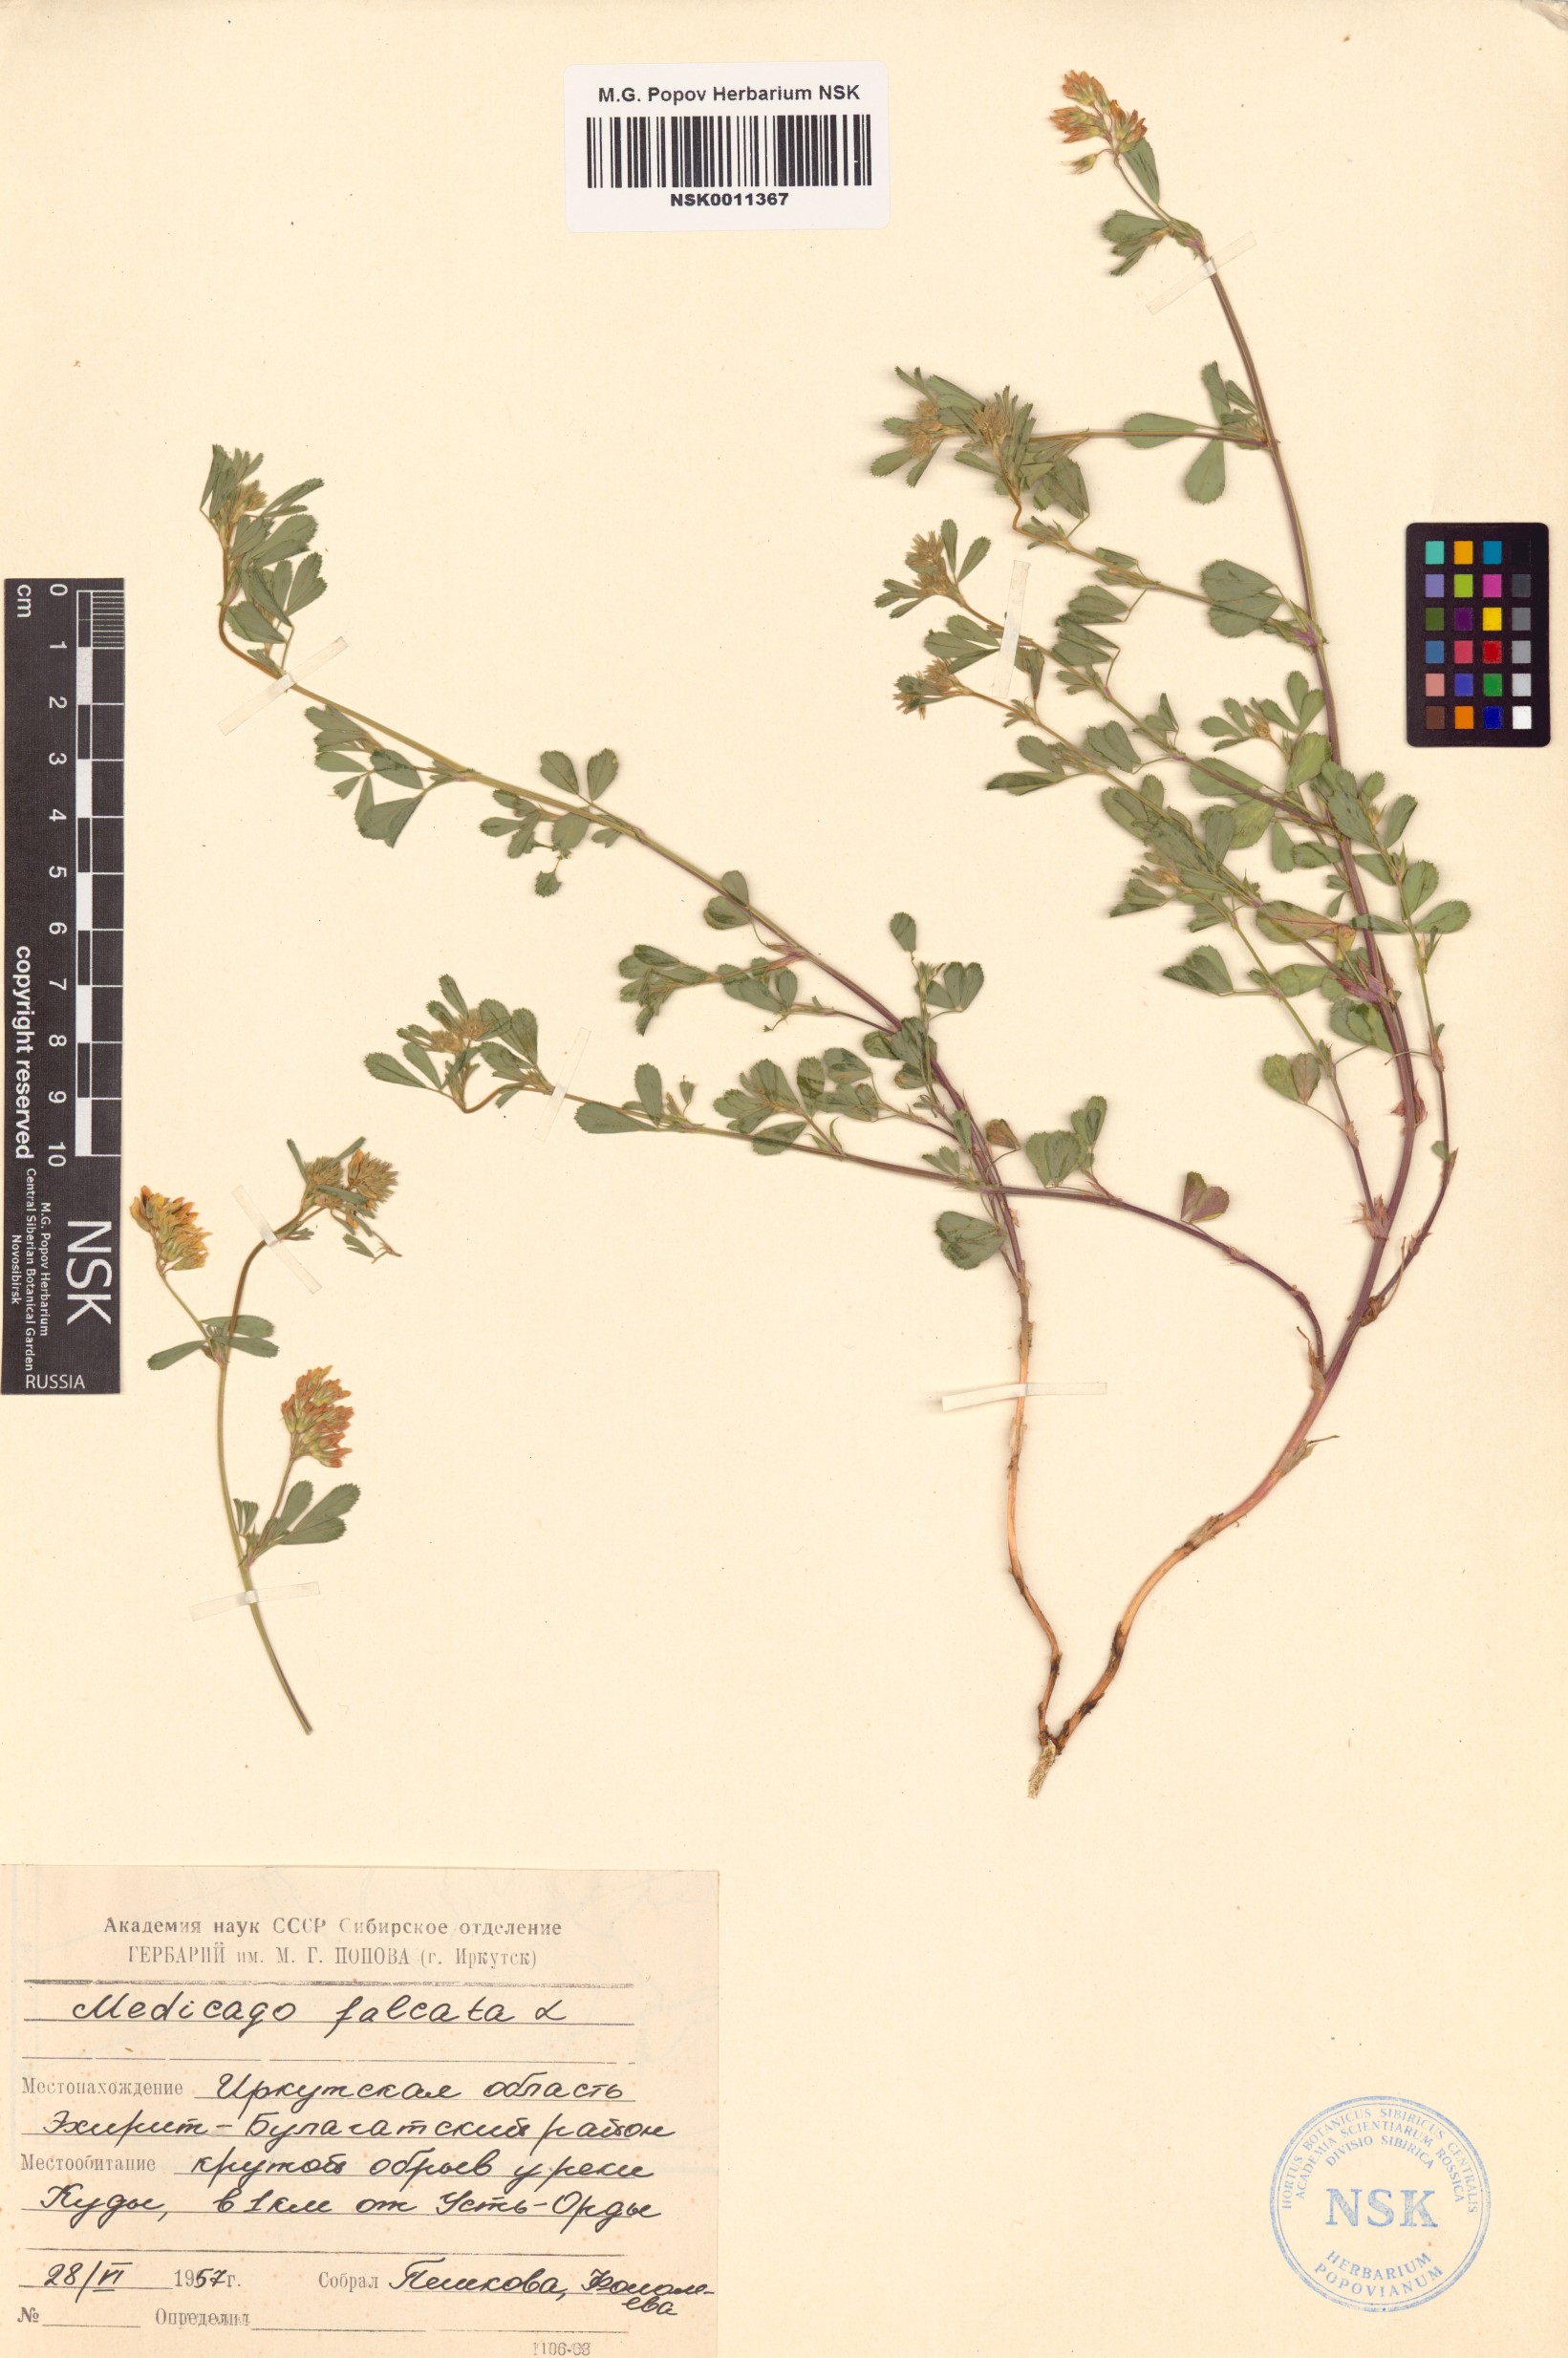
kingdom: Plantae
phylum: Tracheophyta
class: Magnoliopsida
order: Fabales
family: Fabaceae
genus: Medicago
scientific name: Medicago falcata
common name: Sickle medick
